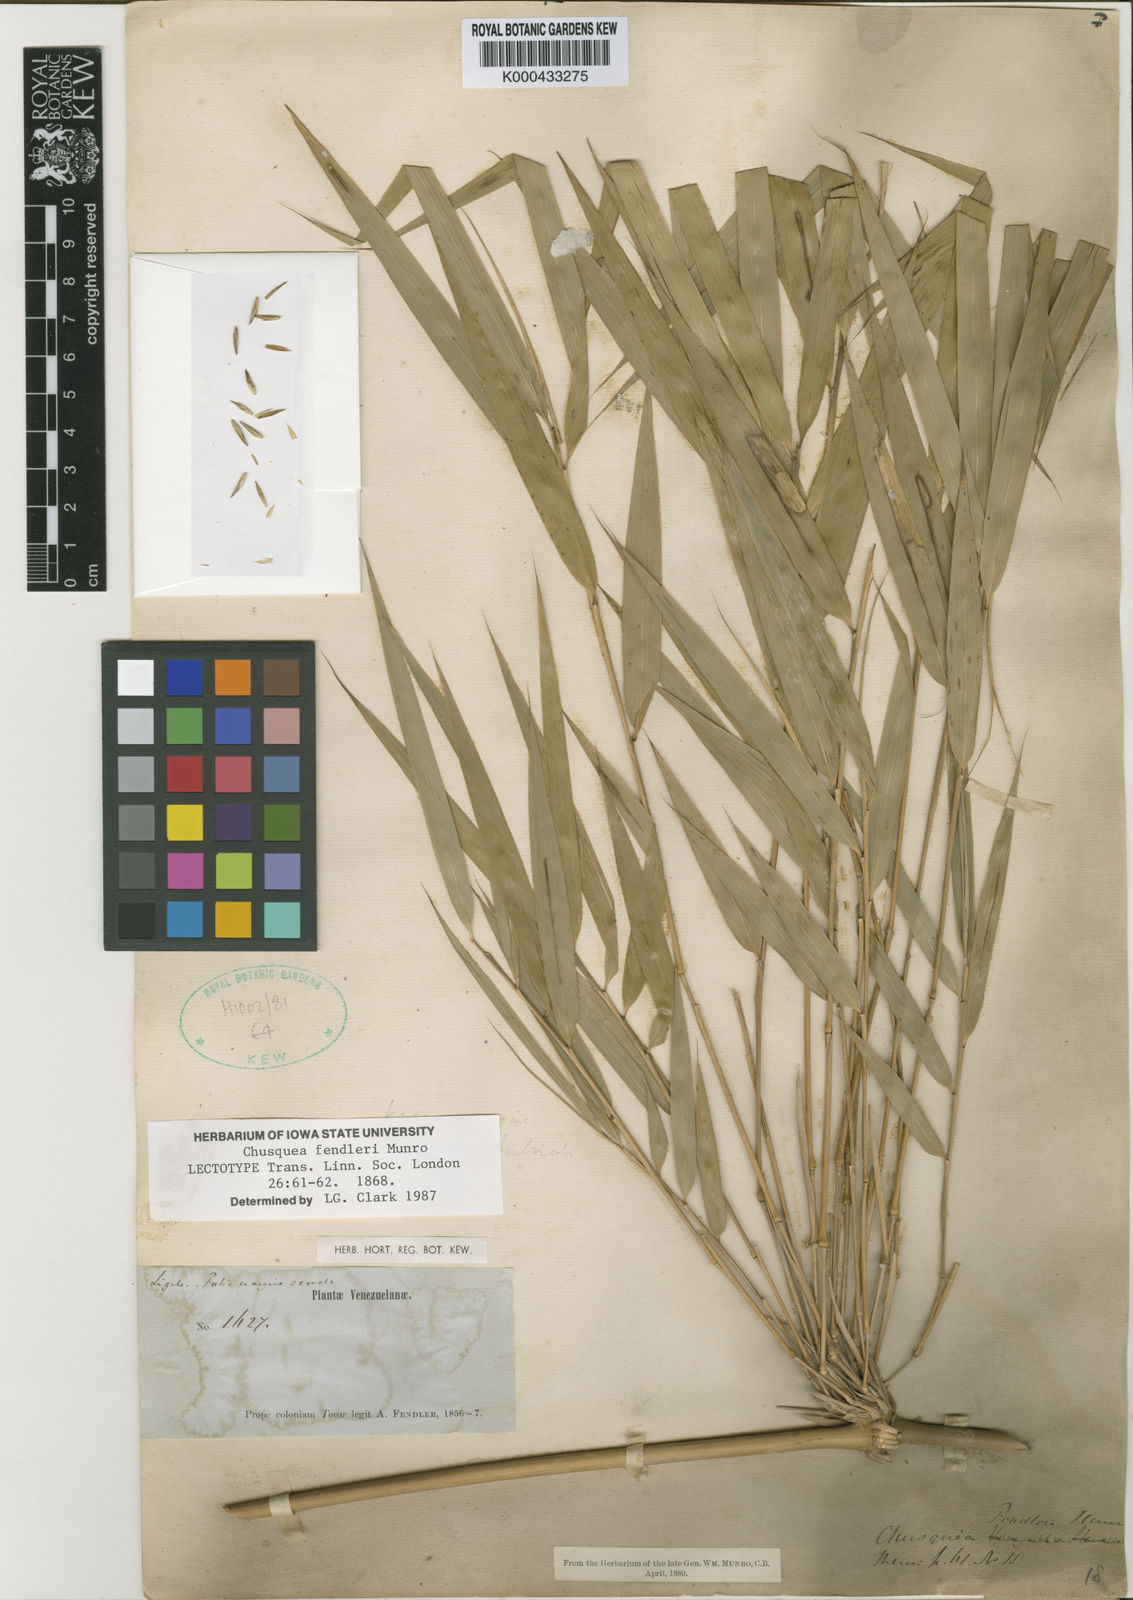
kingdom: Plantae
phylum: Tracheophyta
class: Liliopsida
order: Poales
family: Poaceae
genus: Chusquea
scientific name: Chusquea fendleri
